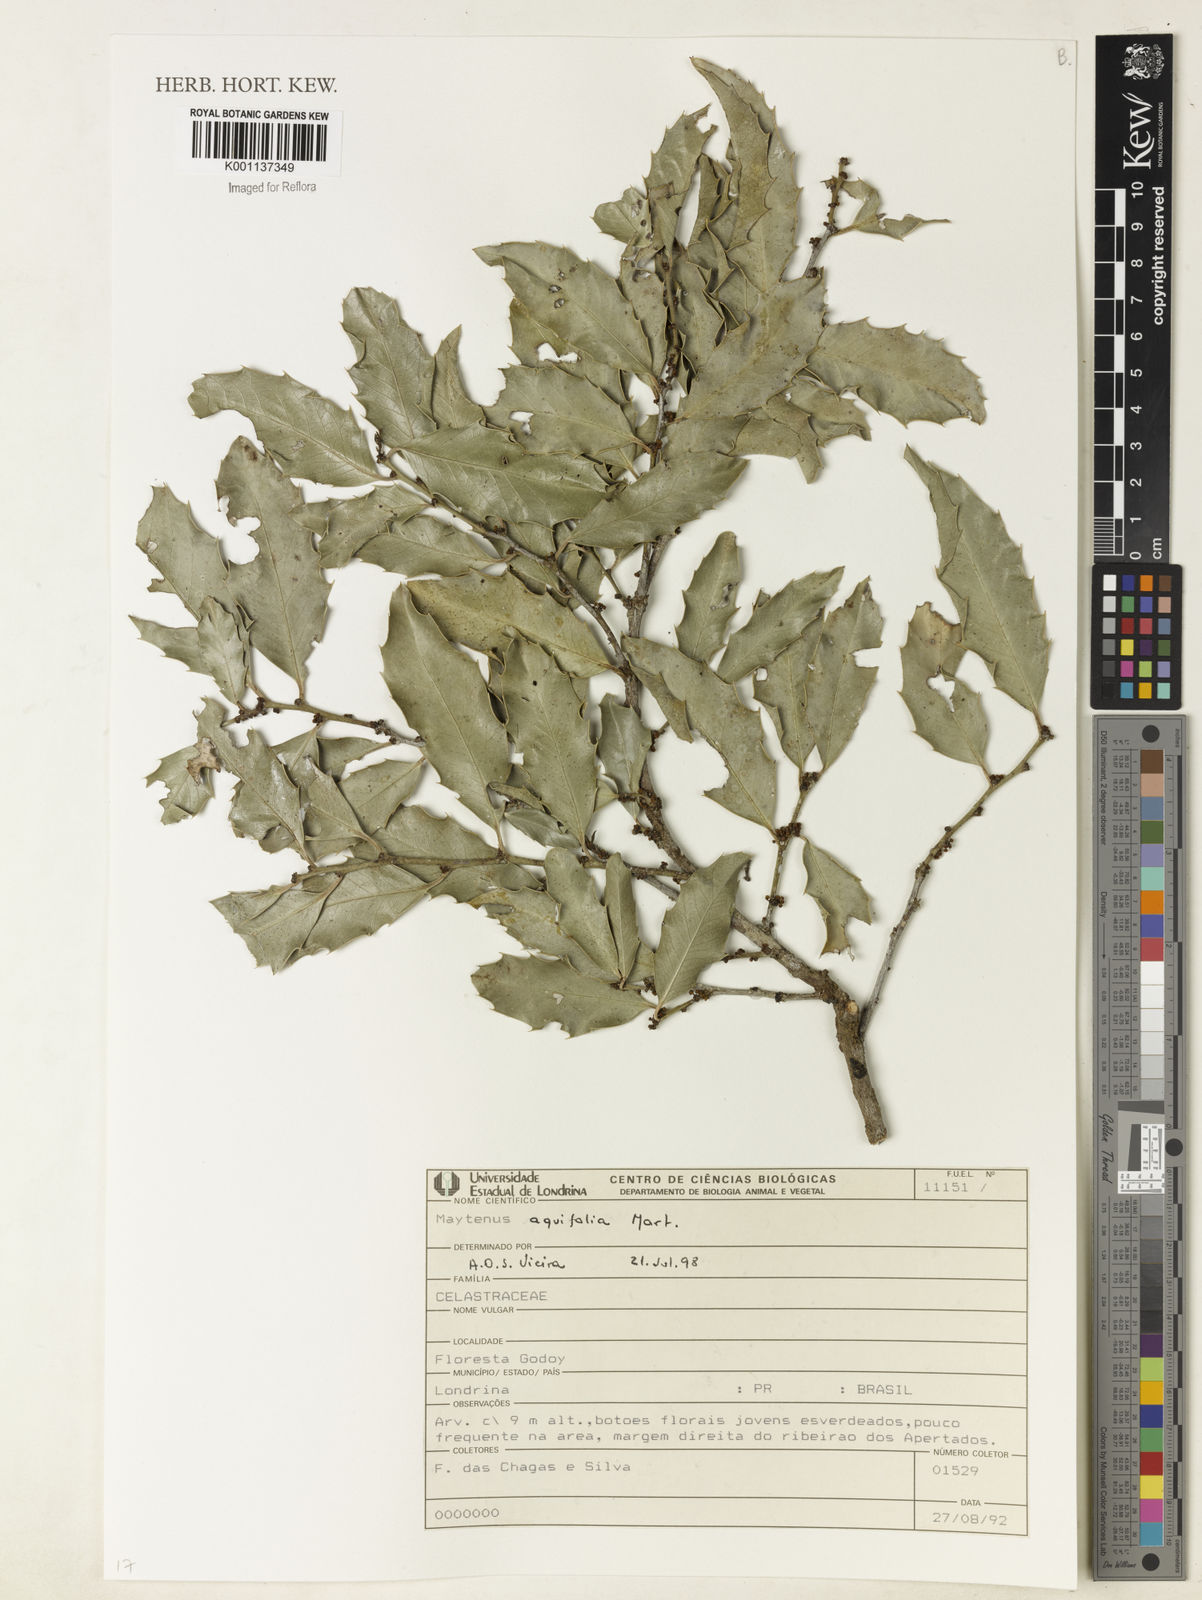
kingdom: Plantae
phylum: Tracheophyta
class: Magnoliopsida
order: Celastrales
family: Celastraceae
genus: Monteverdia
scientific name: Monteverdia aquifolium
